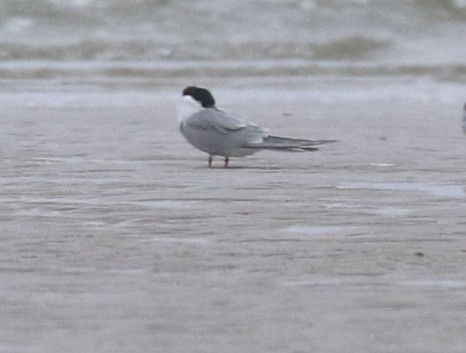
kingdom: Animalia
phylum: Chordata
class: Aves
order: Charadriiformes
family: Laridae
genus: Sterna
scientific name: Sterna hirundo
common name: Fjordterne
